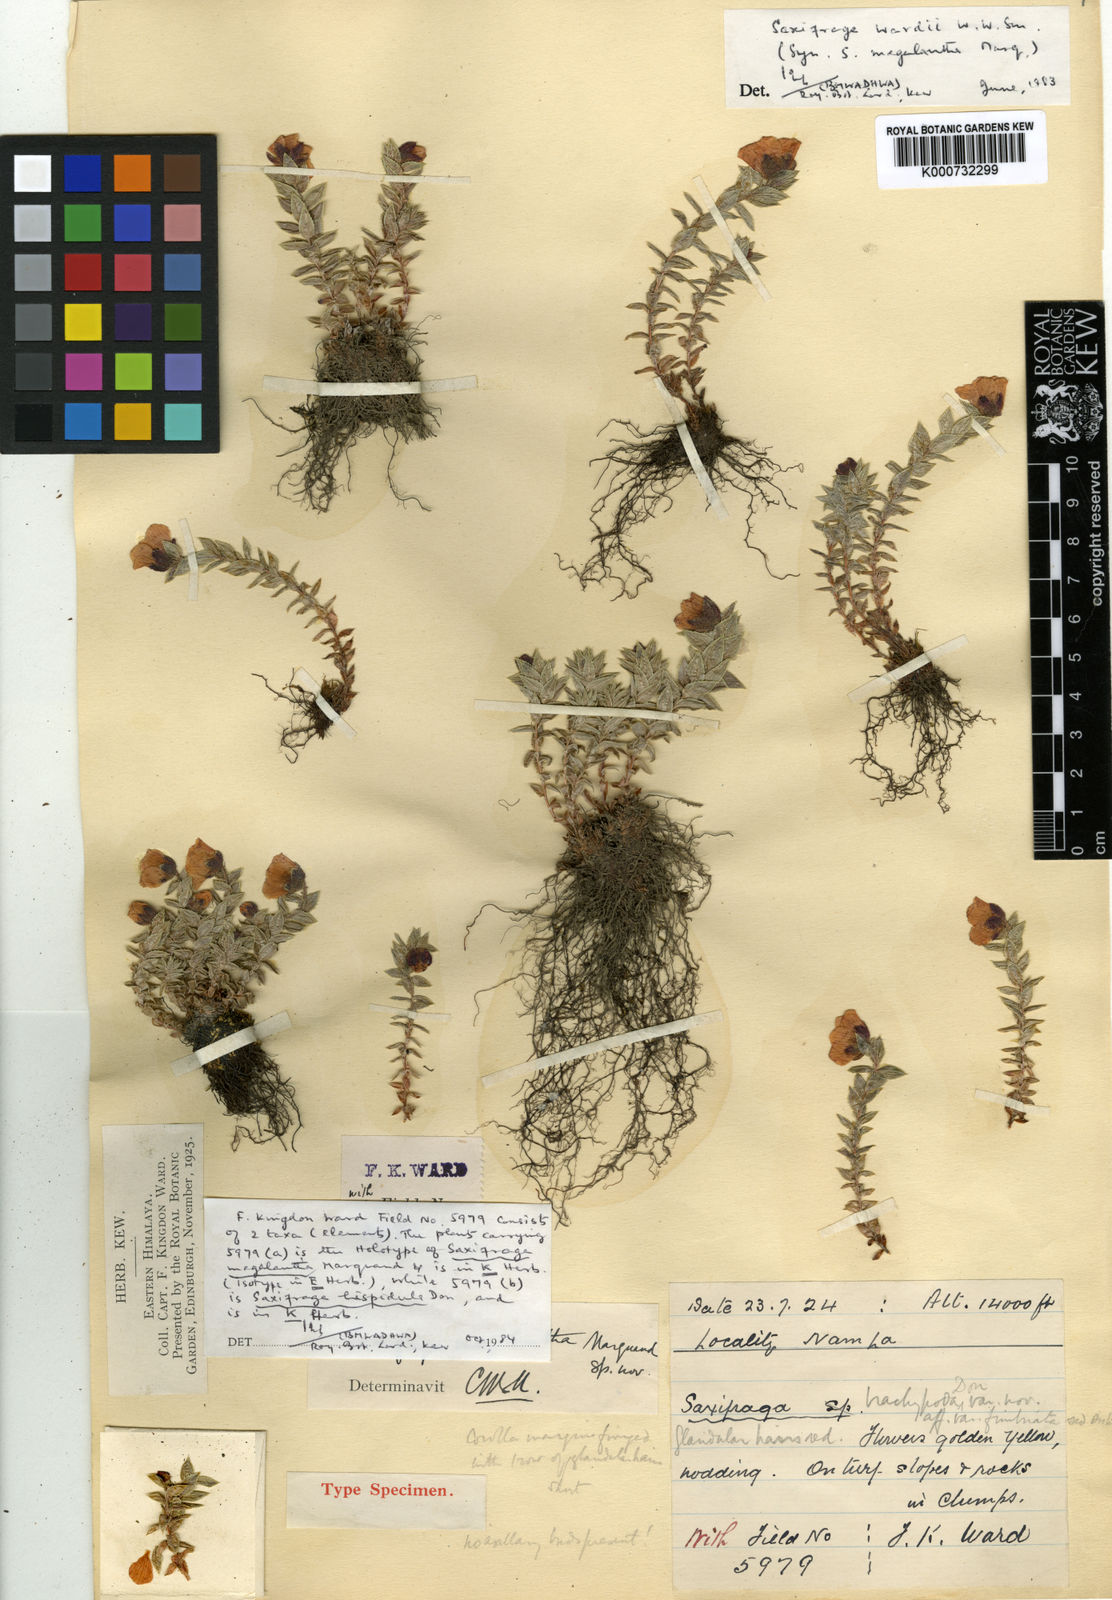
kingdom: Plantae
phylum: Tracheophyta
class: Magnoliopsida
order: Saxifragales
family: Saxifragaceae
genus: Saxifraga
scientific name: Saxifraga wardii
